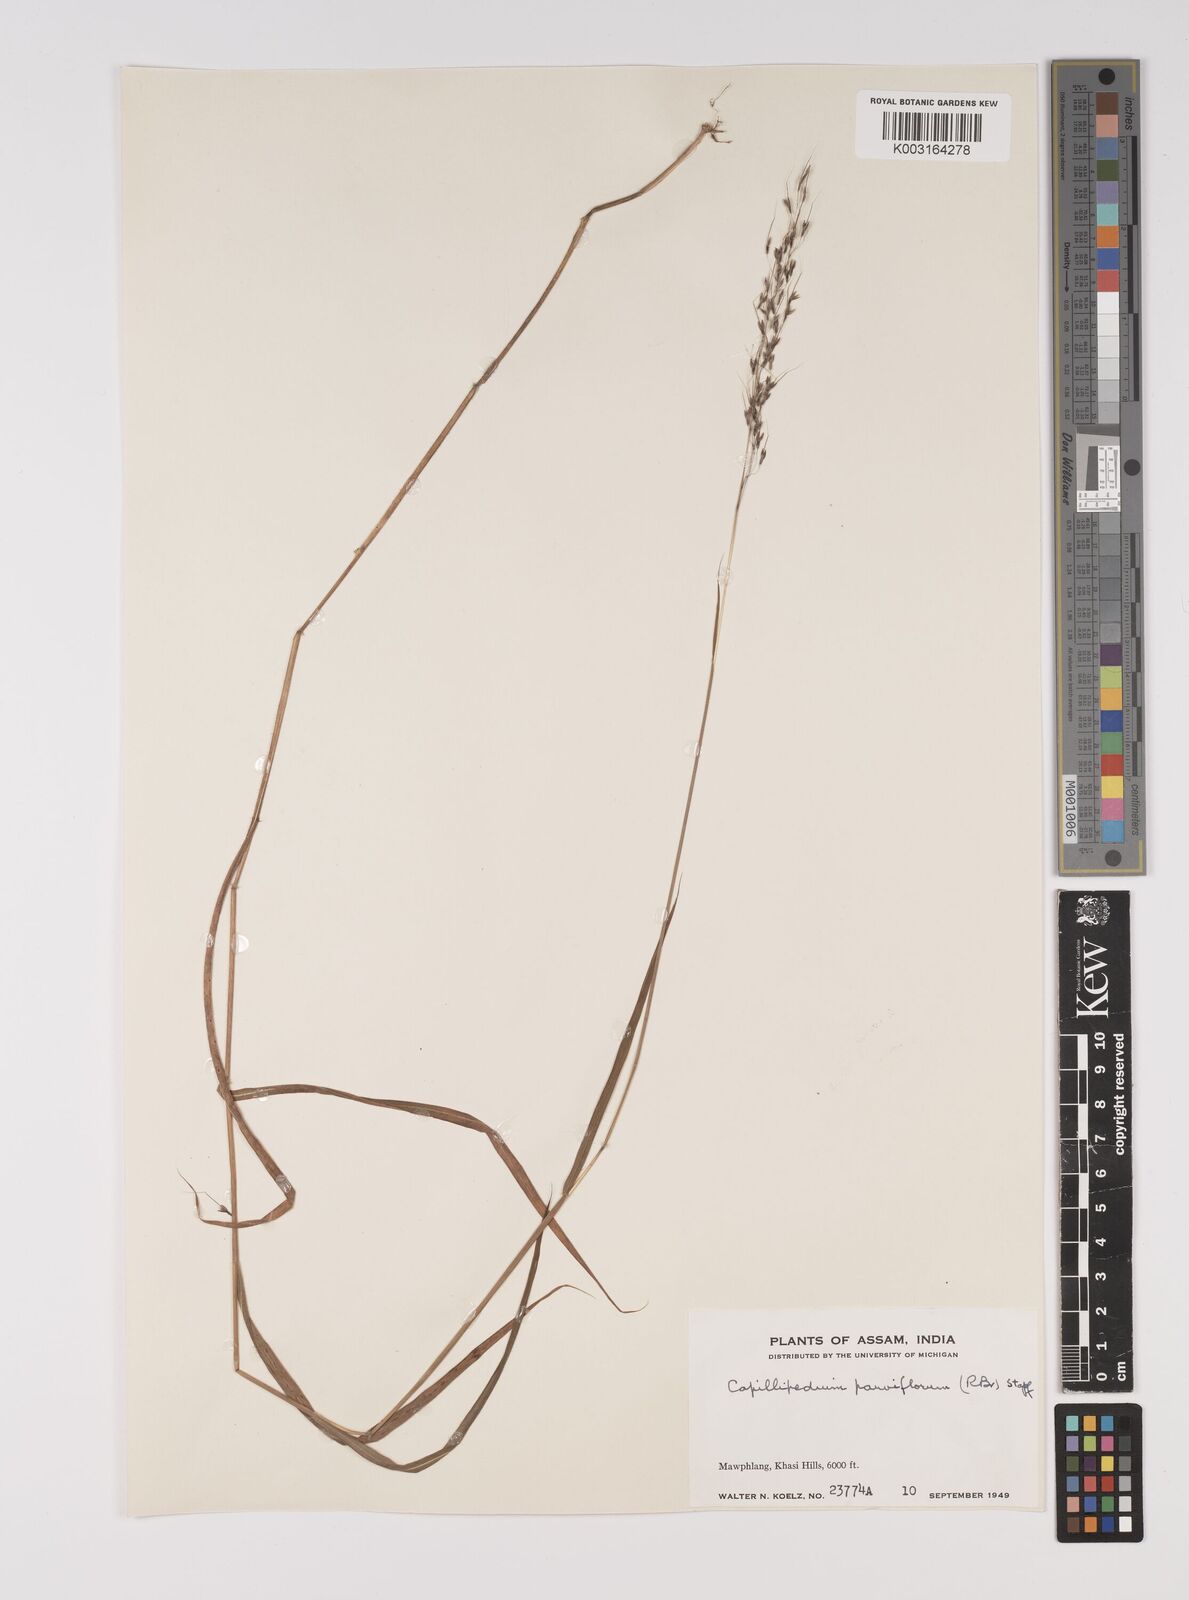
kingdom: Plantae
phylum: Tracheophyta
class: Liliopsida
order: Poales
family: Poaceae
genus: Capillipedium
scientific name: Capillipedium parviflorum
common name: Golden-beard
